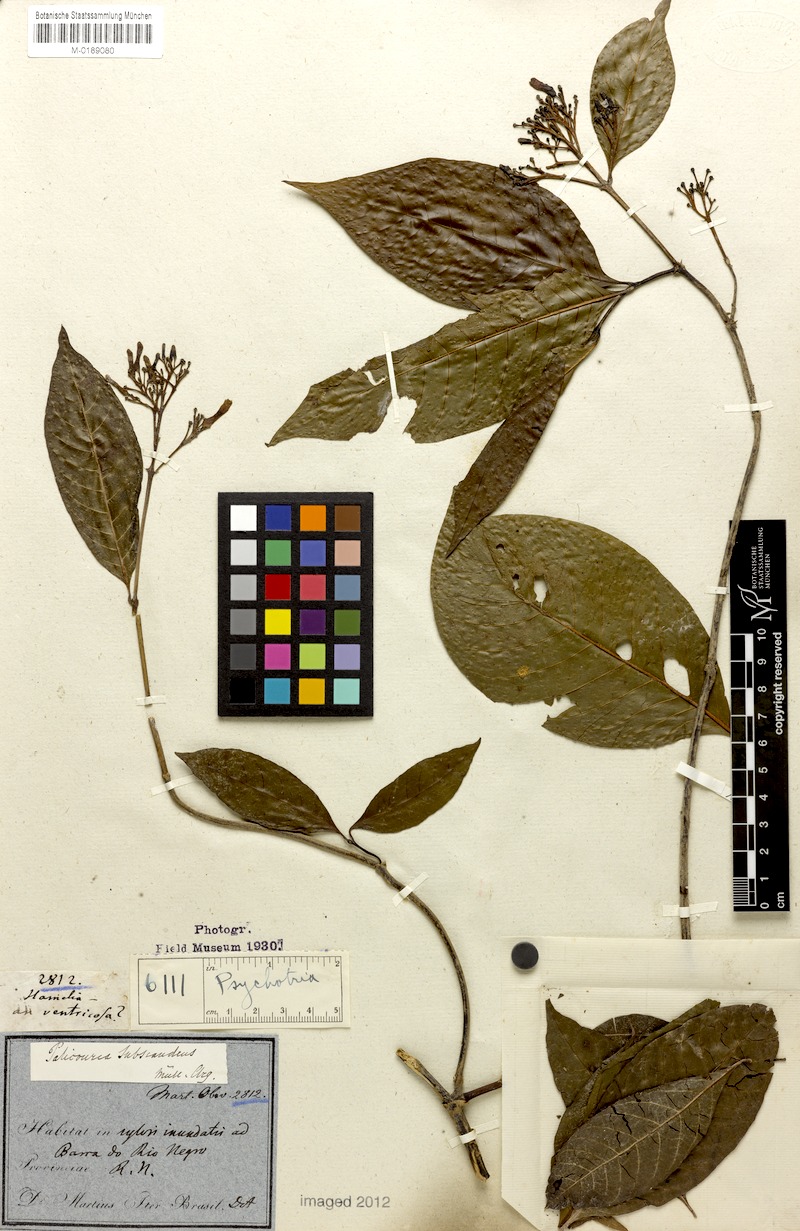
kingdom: Plantae
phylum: Tracheophyta
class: Magnoliopsida
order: Gentianales
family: Rubiaceae
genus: Psychotria
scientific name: Psychotria subscandens
